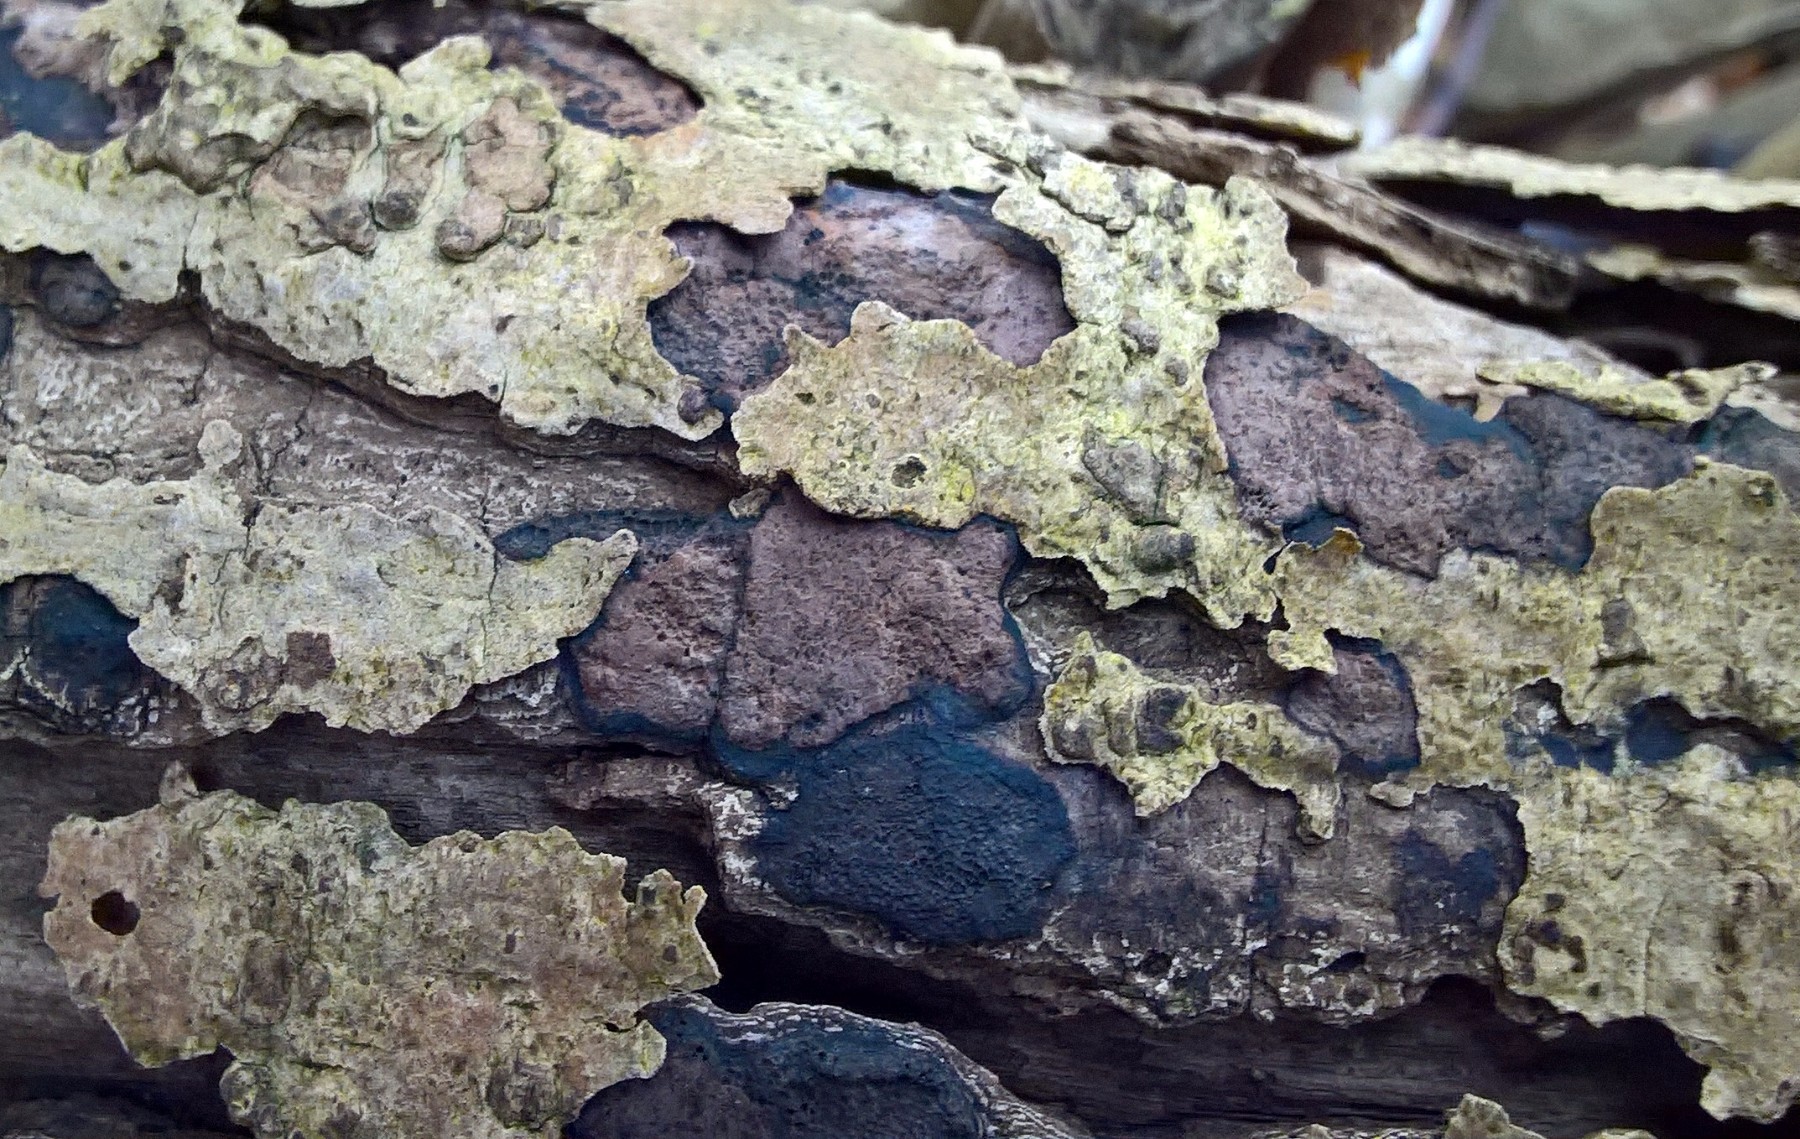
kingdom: Fungi
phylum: Ascomycota
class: Sordariomycetes
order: Xylariales
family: Hypoxylaceae
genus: Hypoxylon
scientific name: Hypoxylon petriniae
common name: nedsænket kulbær
